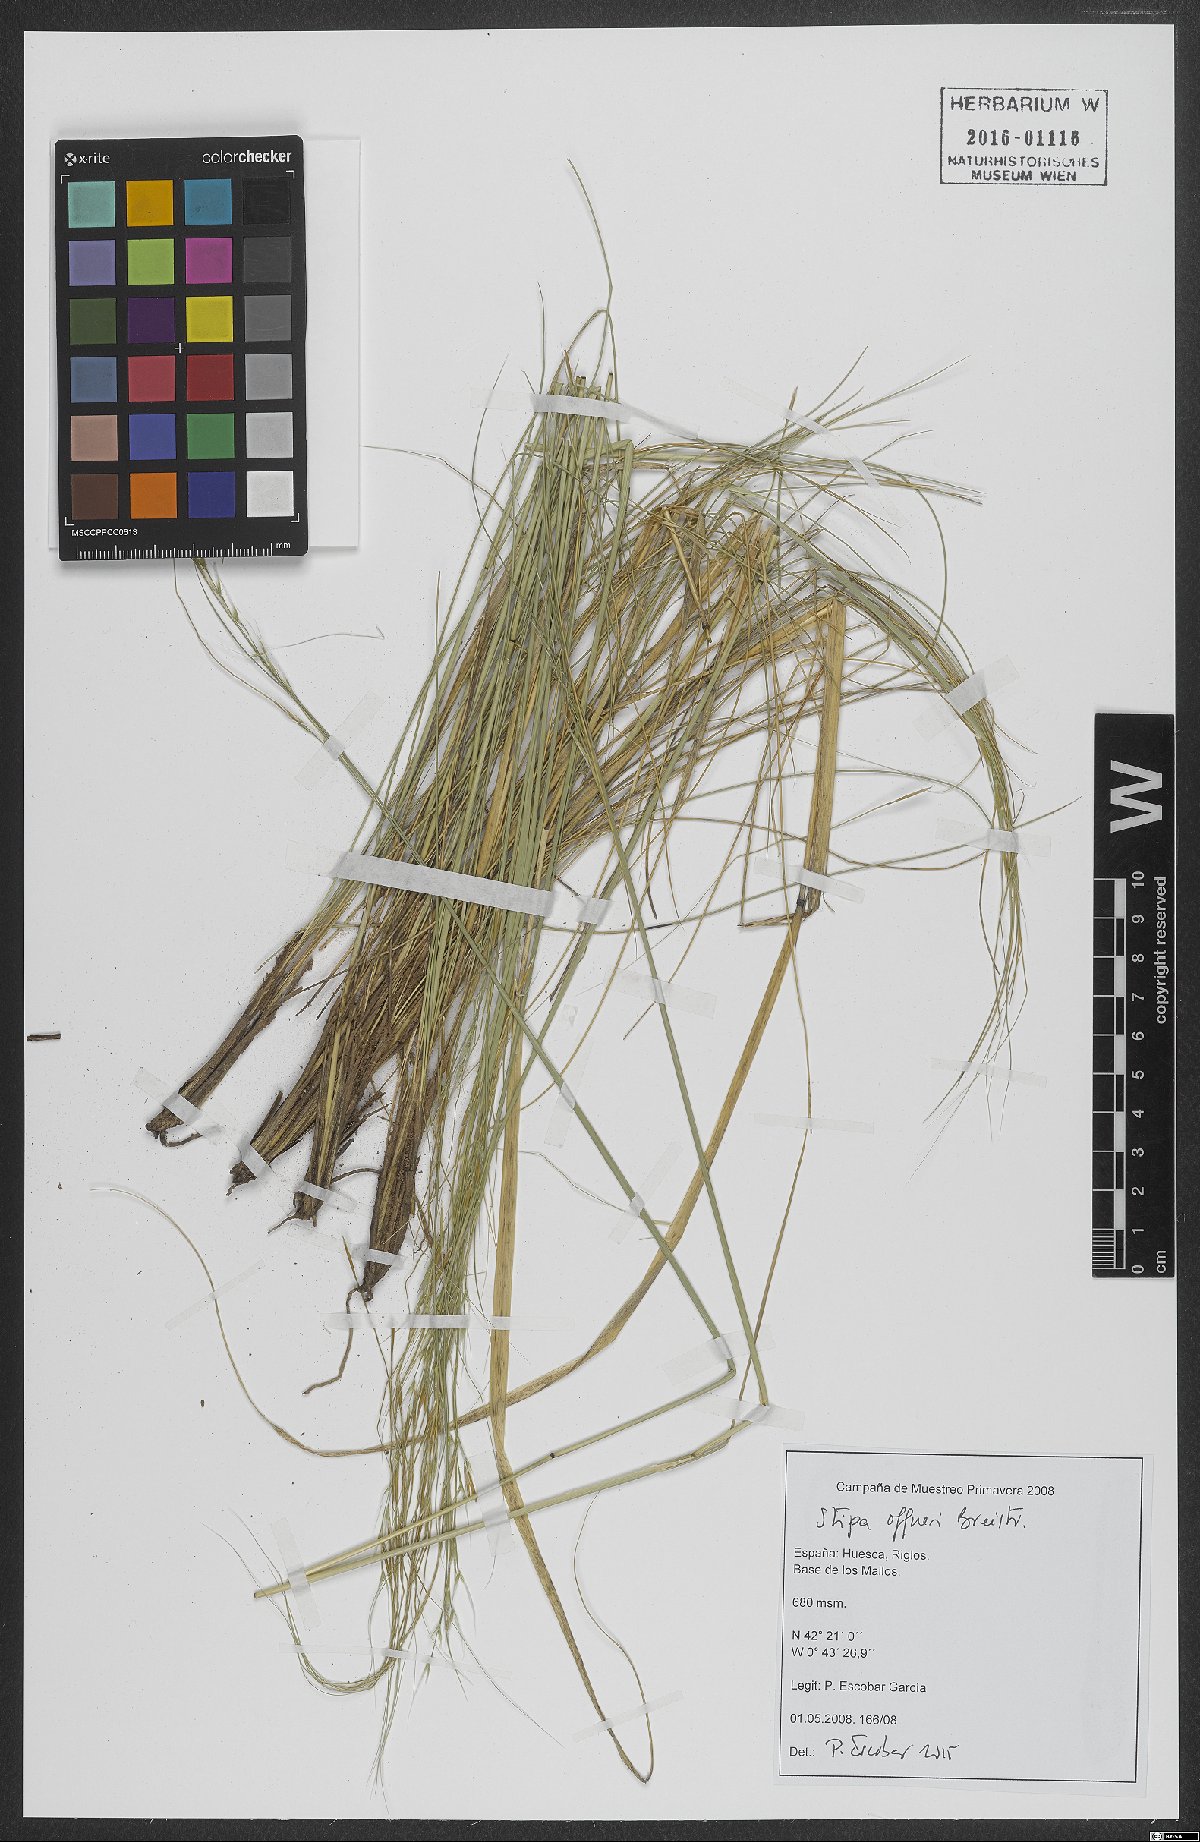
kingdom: Plantae
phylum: Tracheophyta
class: Liliopsida
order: Poales
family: Poaceae
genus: Stipa
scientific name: Stipa offneri
